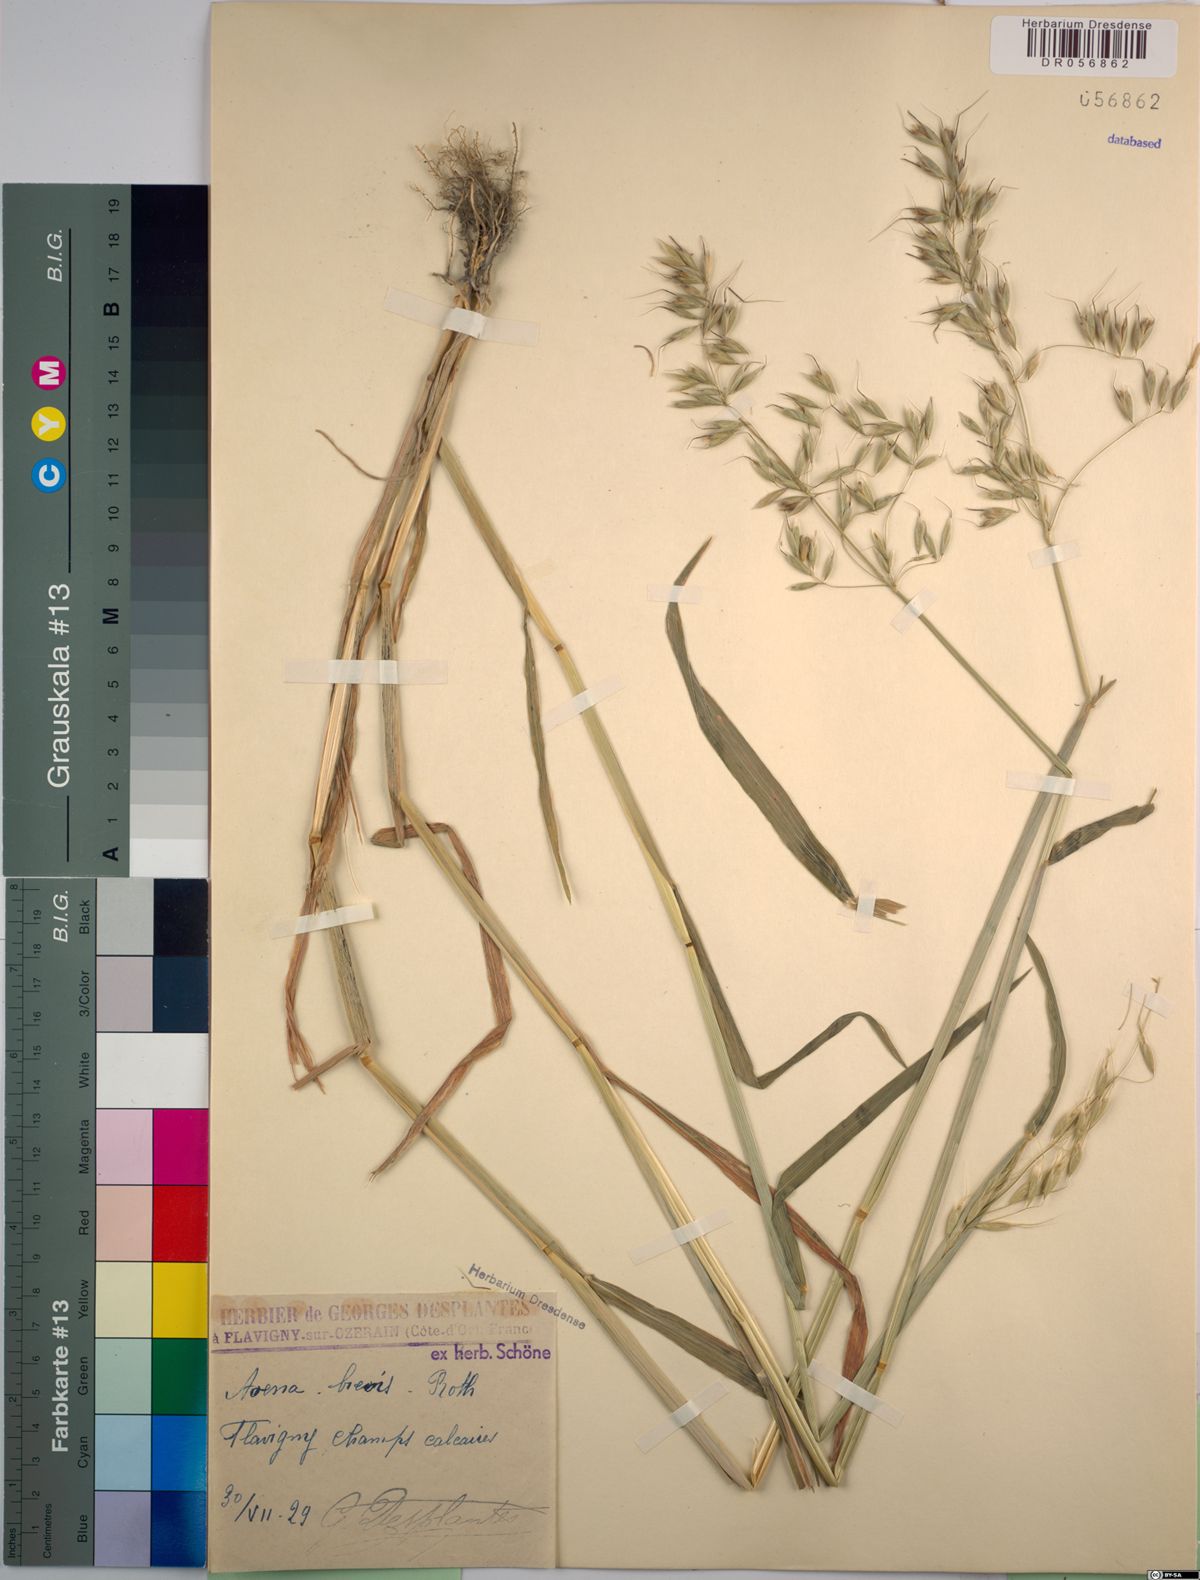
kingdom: Plantae
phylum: Tracheophyta
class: Liliopsida
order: Poales
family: Poaceae
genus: Avena
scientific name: Avena brevis
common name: Short oat
